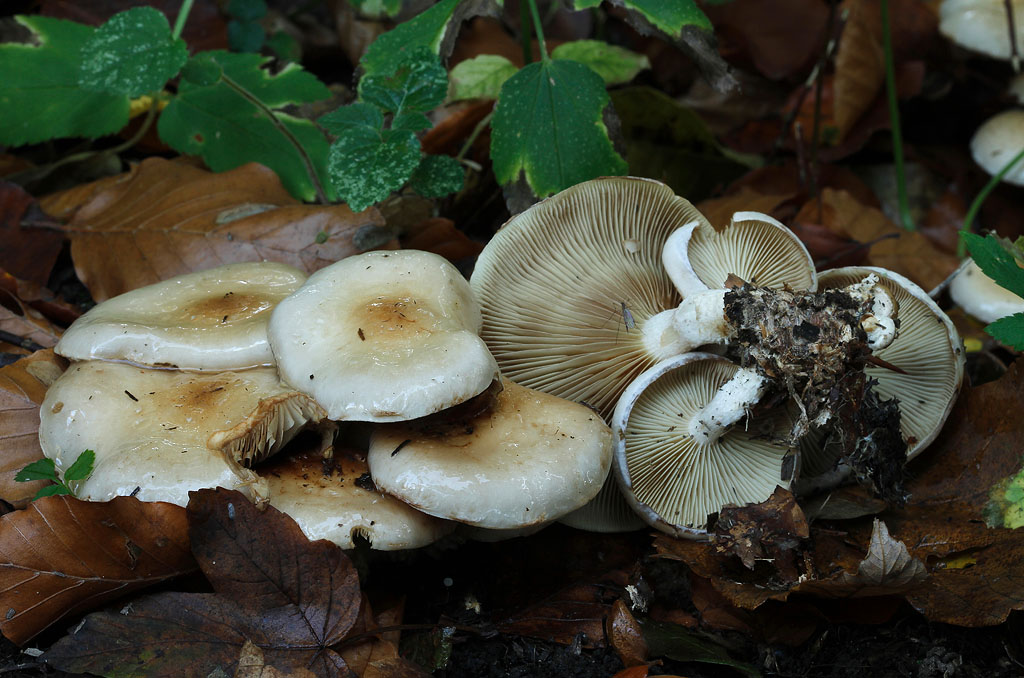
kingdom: Fungi
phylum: Basidiomycota
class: Agaricomycetes
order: Agaricales
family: Strophariaceae
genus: Pholiota
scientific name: Pholiota lenta
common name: løv-skælhat
